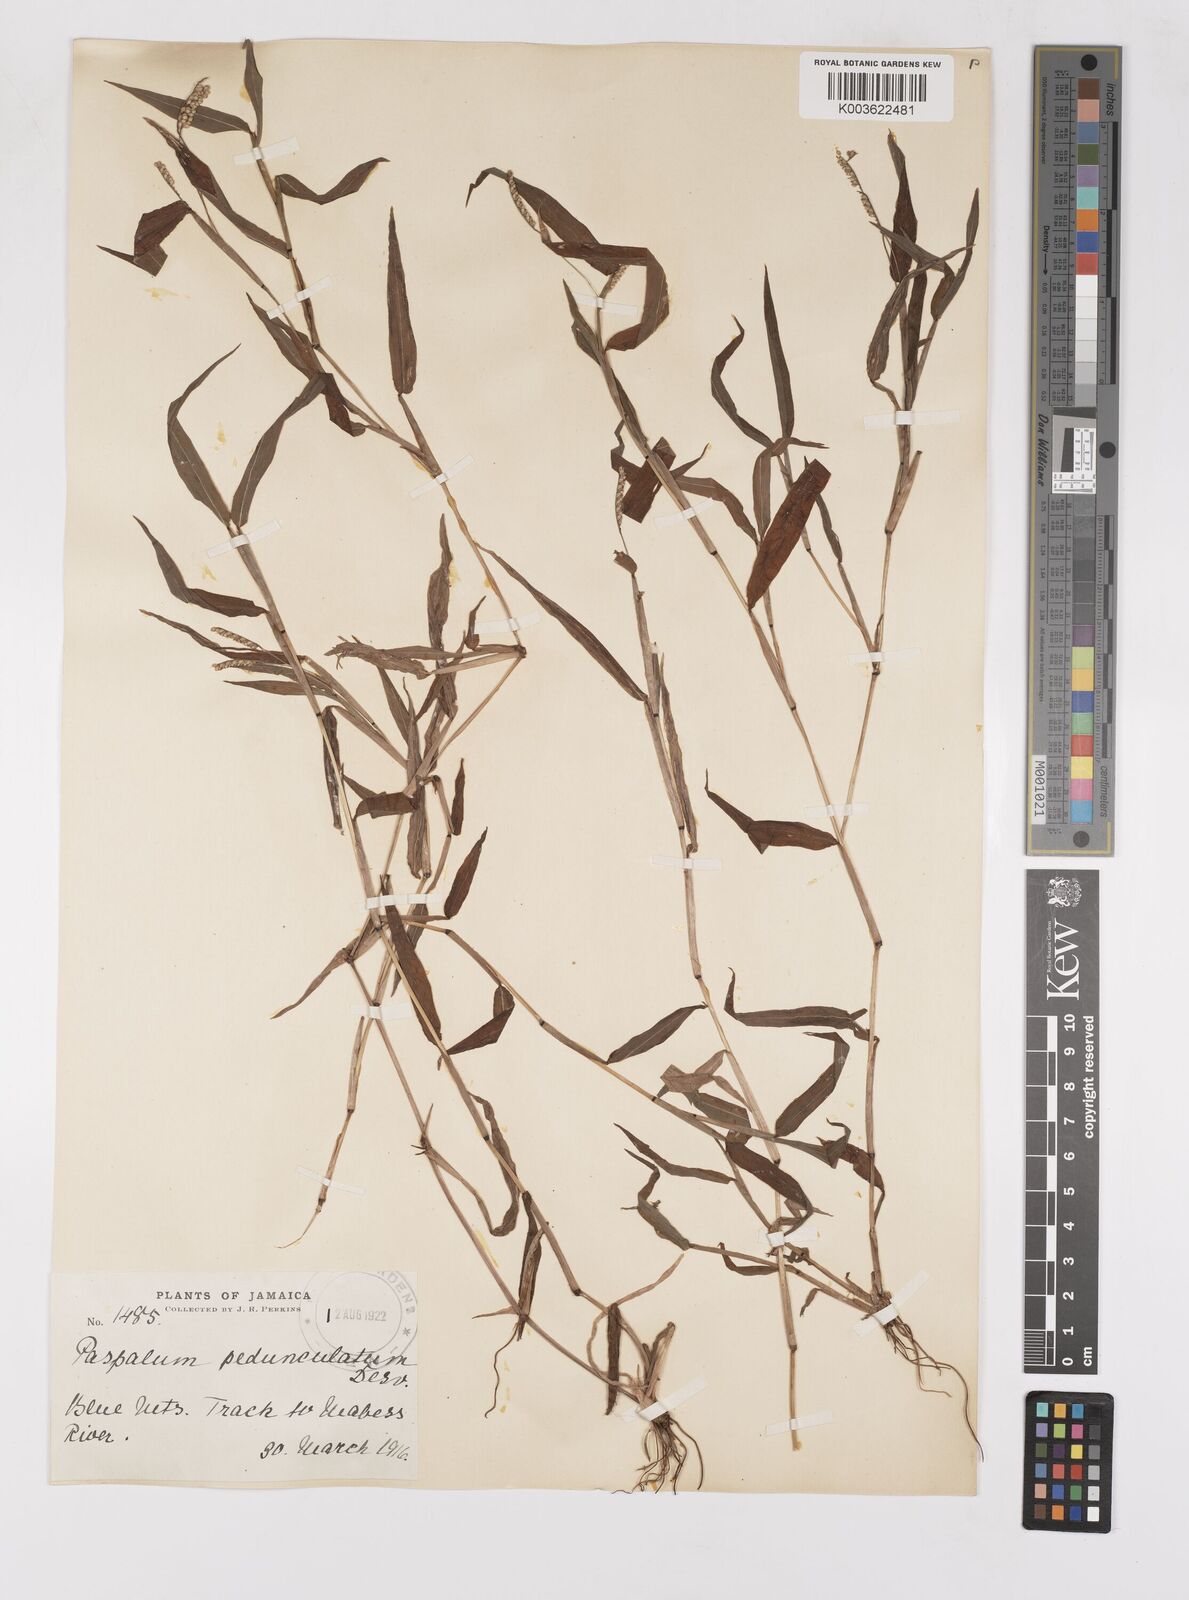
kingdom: Plantae
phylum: Tracheophyta
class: Liliopsida
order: Poales
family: Poaceae
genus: Paspalum
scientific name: Paspalum decumbens
